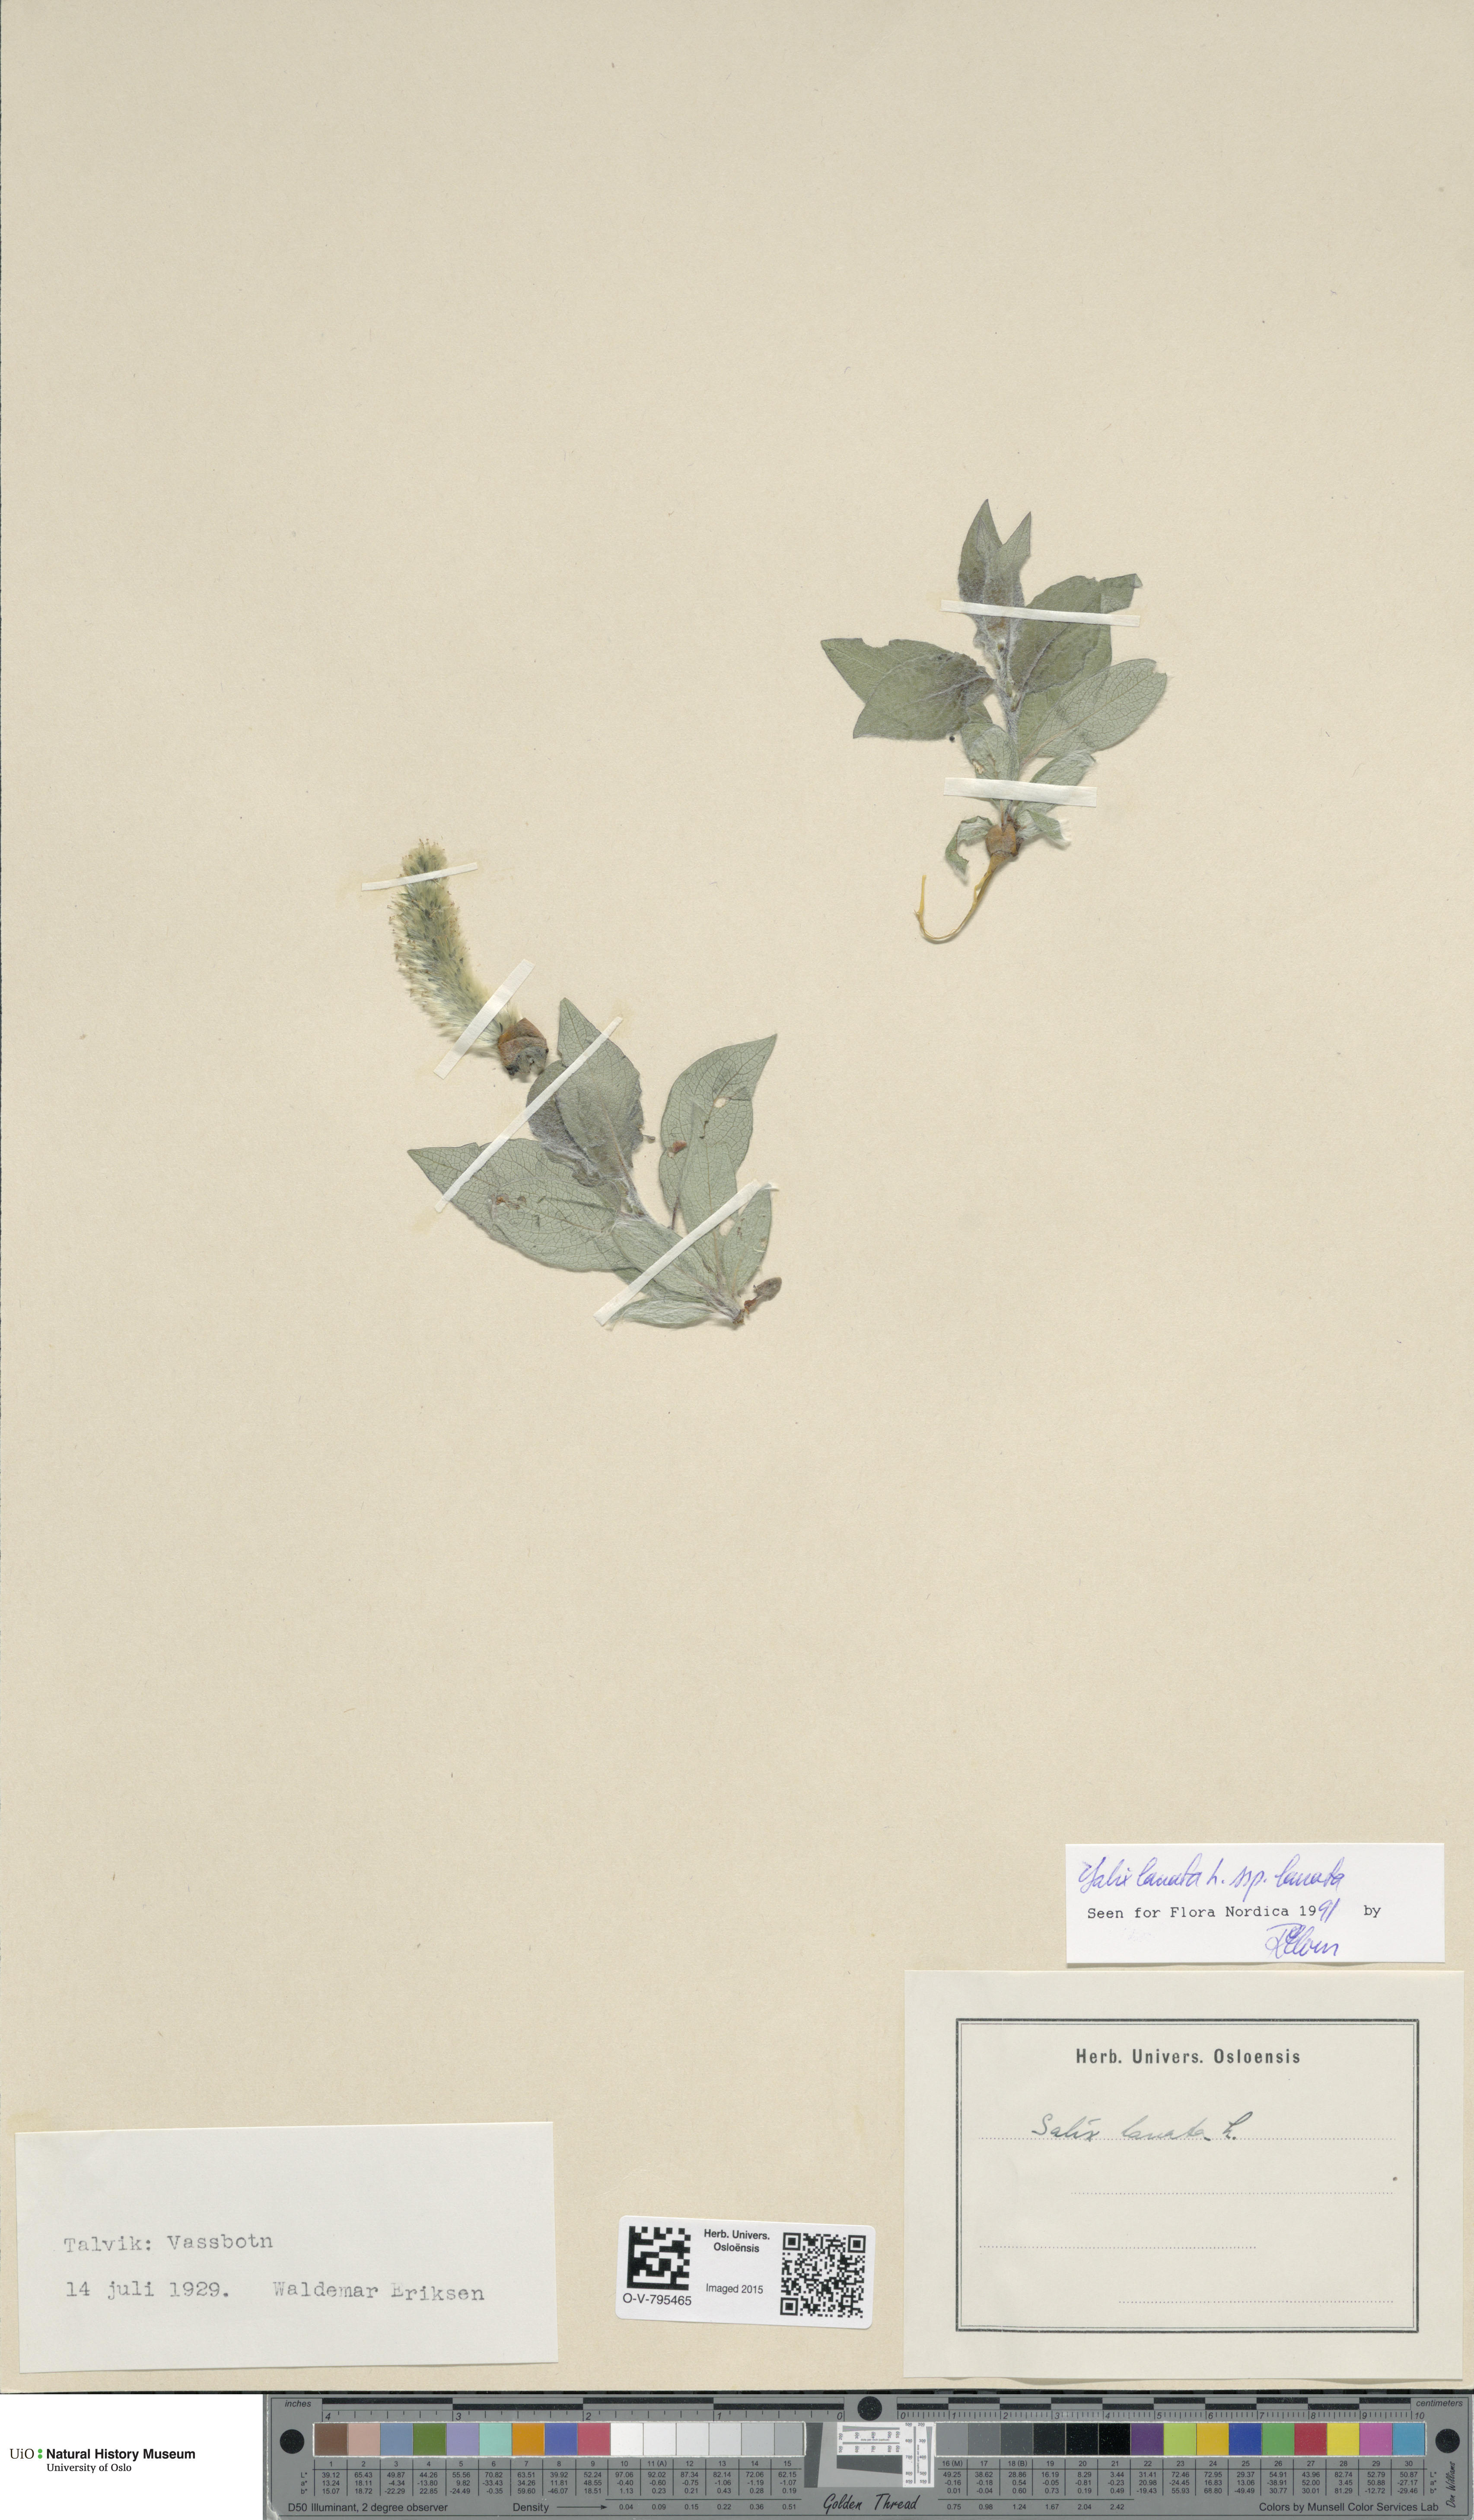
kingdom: Plantae
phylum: Tracheophyta
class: Magnoliopsida
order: Malpighiales
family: Salicaceae
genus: Salix
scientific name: Salix lanata
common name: Woolly willow
